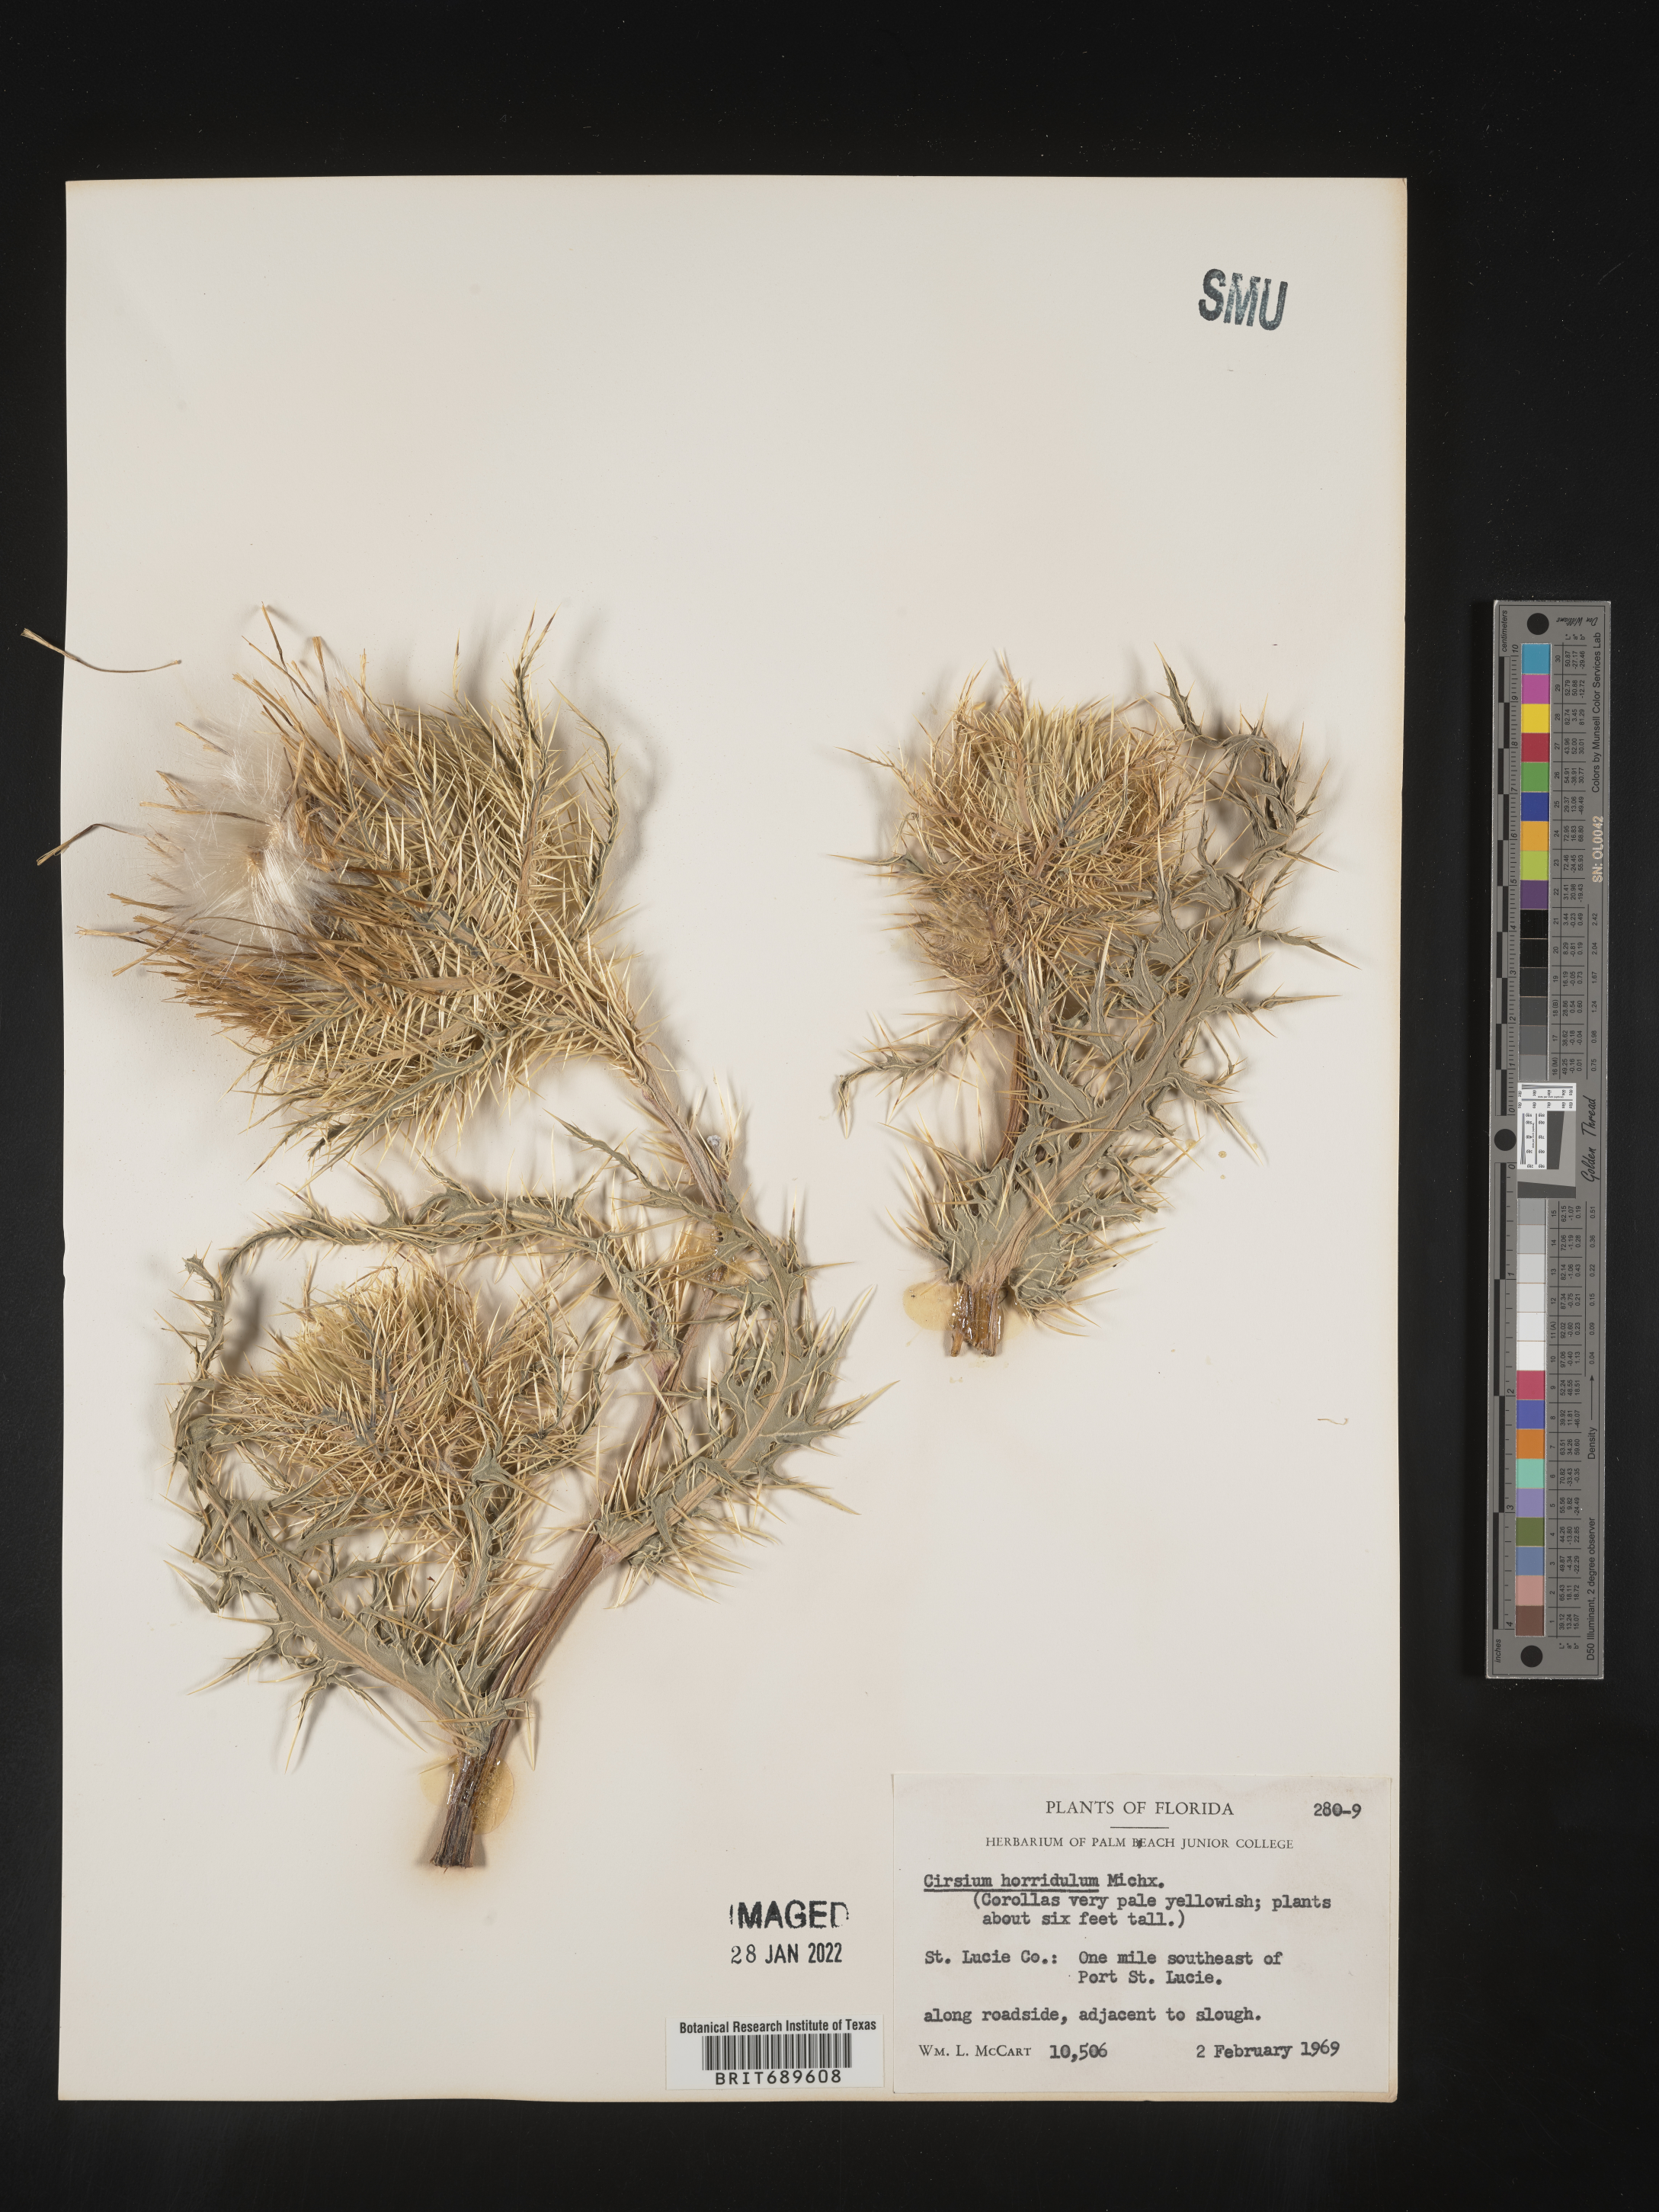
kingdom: Plantae
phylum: Tracheophyta
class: Magnoliopsida
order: Asterales
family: Asteraceae
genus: Cirsium
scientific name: Cirsium horridulum
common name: Bristly thistle
